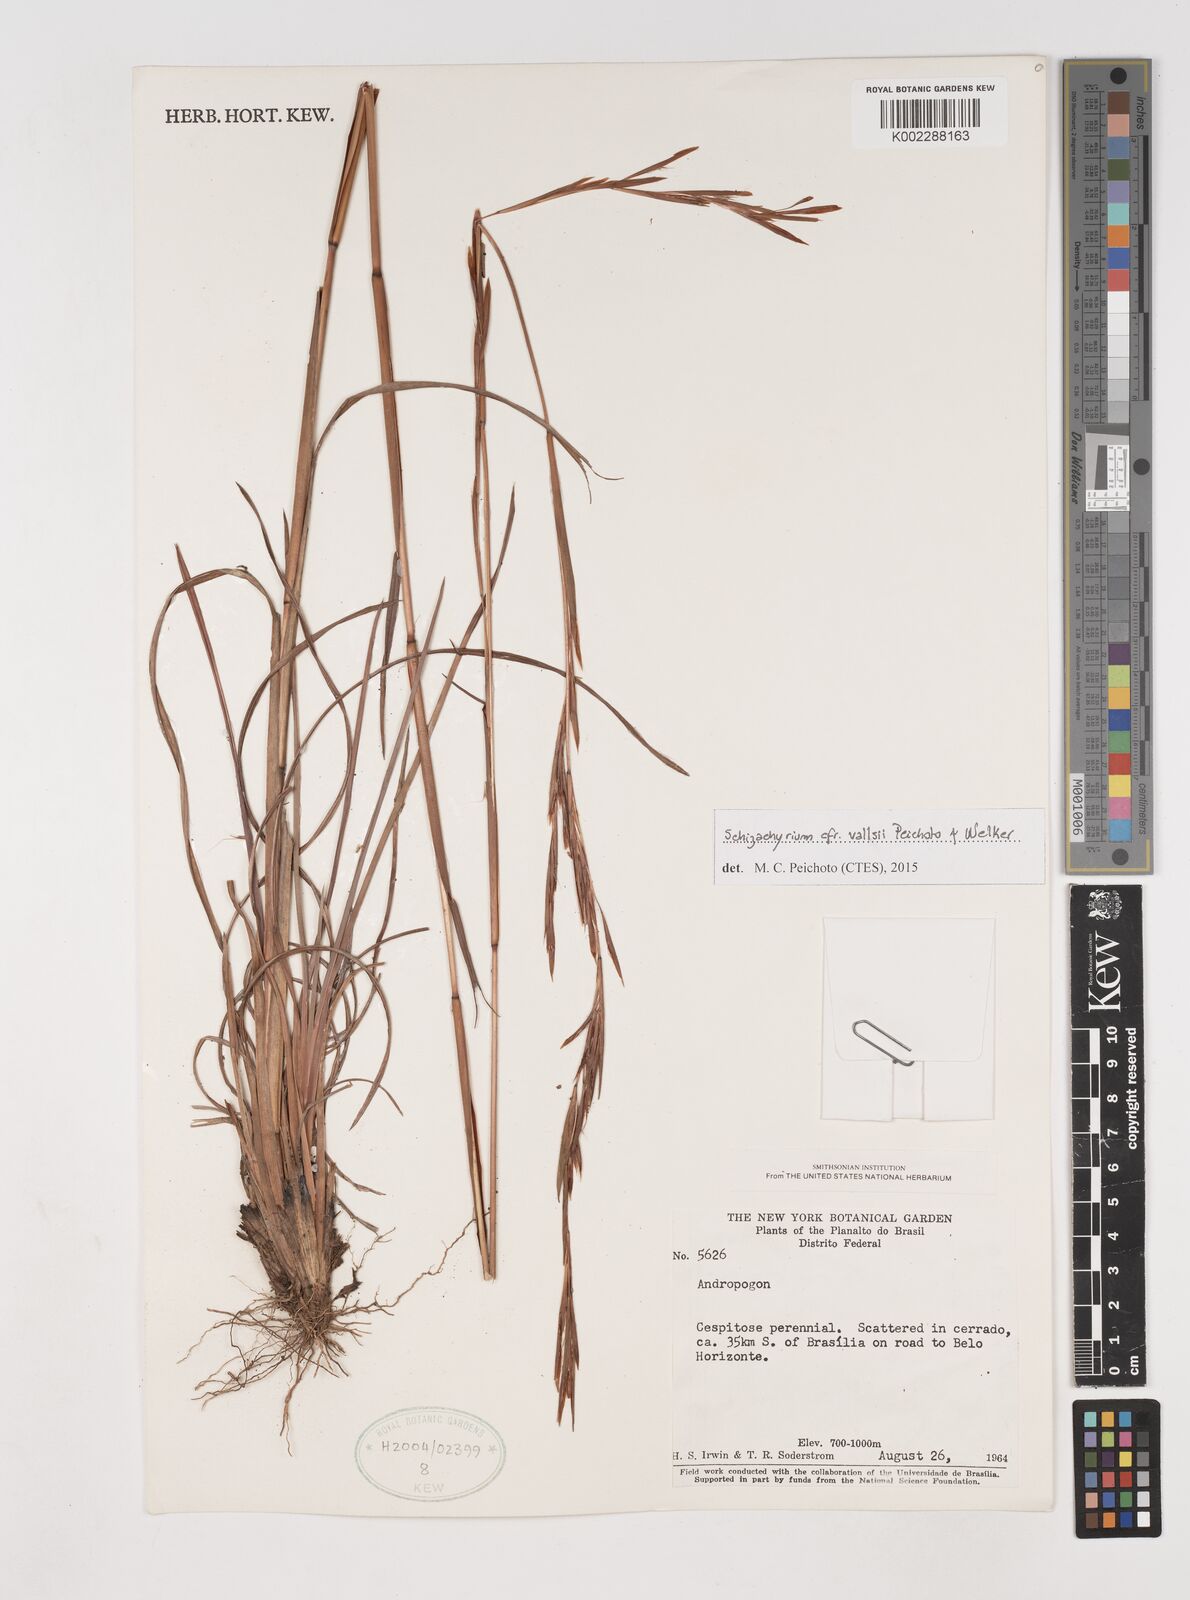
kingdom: Plantae
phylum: Tracheophyta
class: Liliopsida
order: Poales
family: Poaceae
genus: Schizachyrium
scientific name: Schizachyrium vallsii
